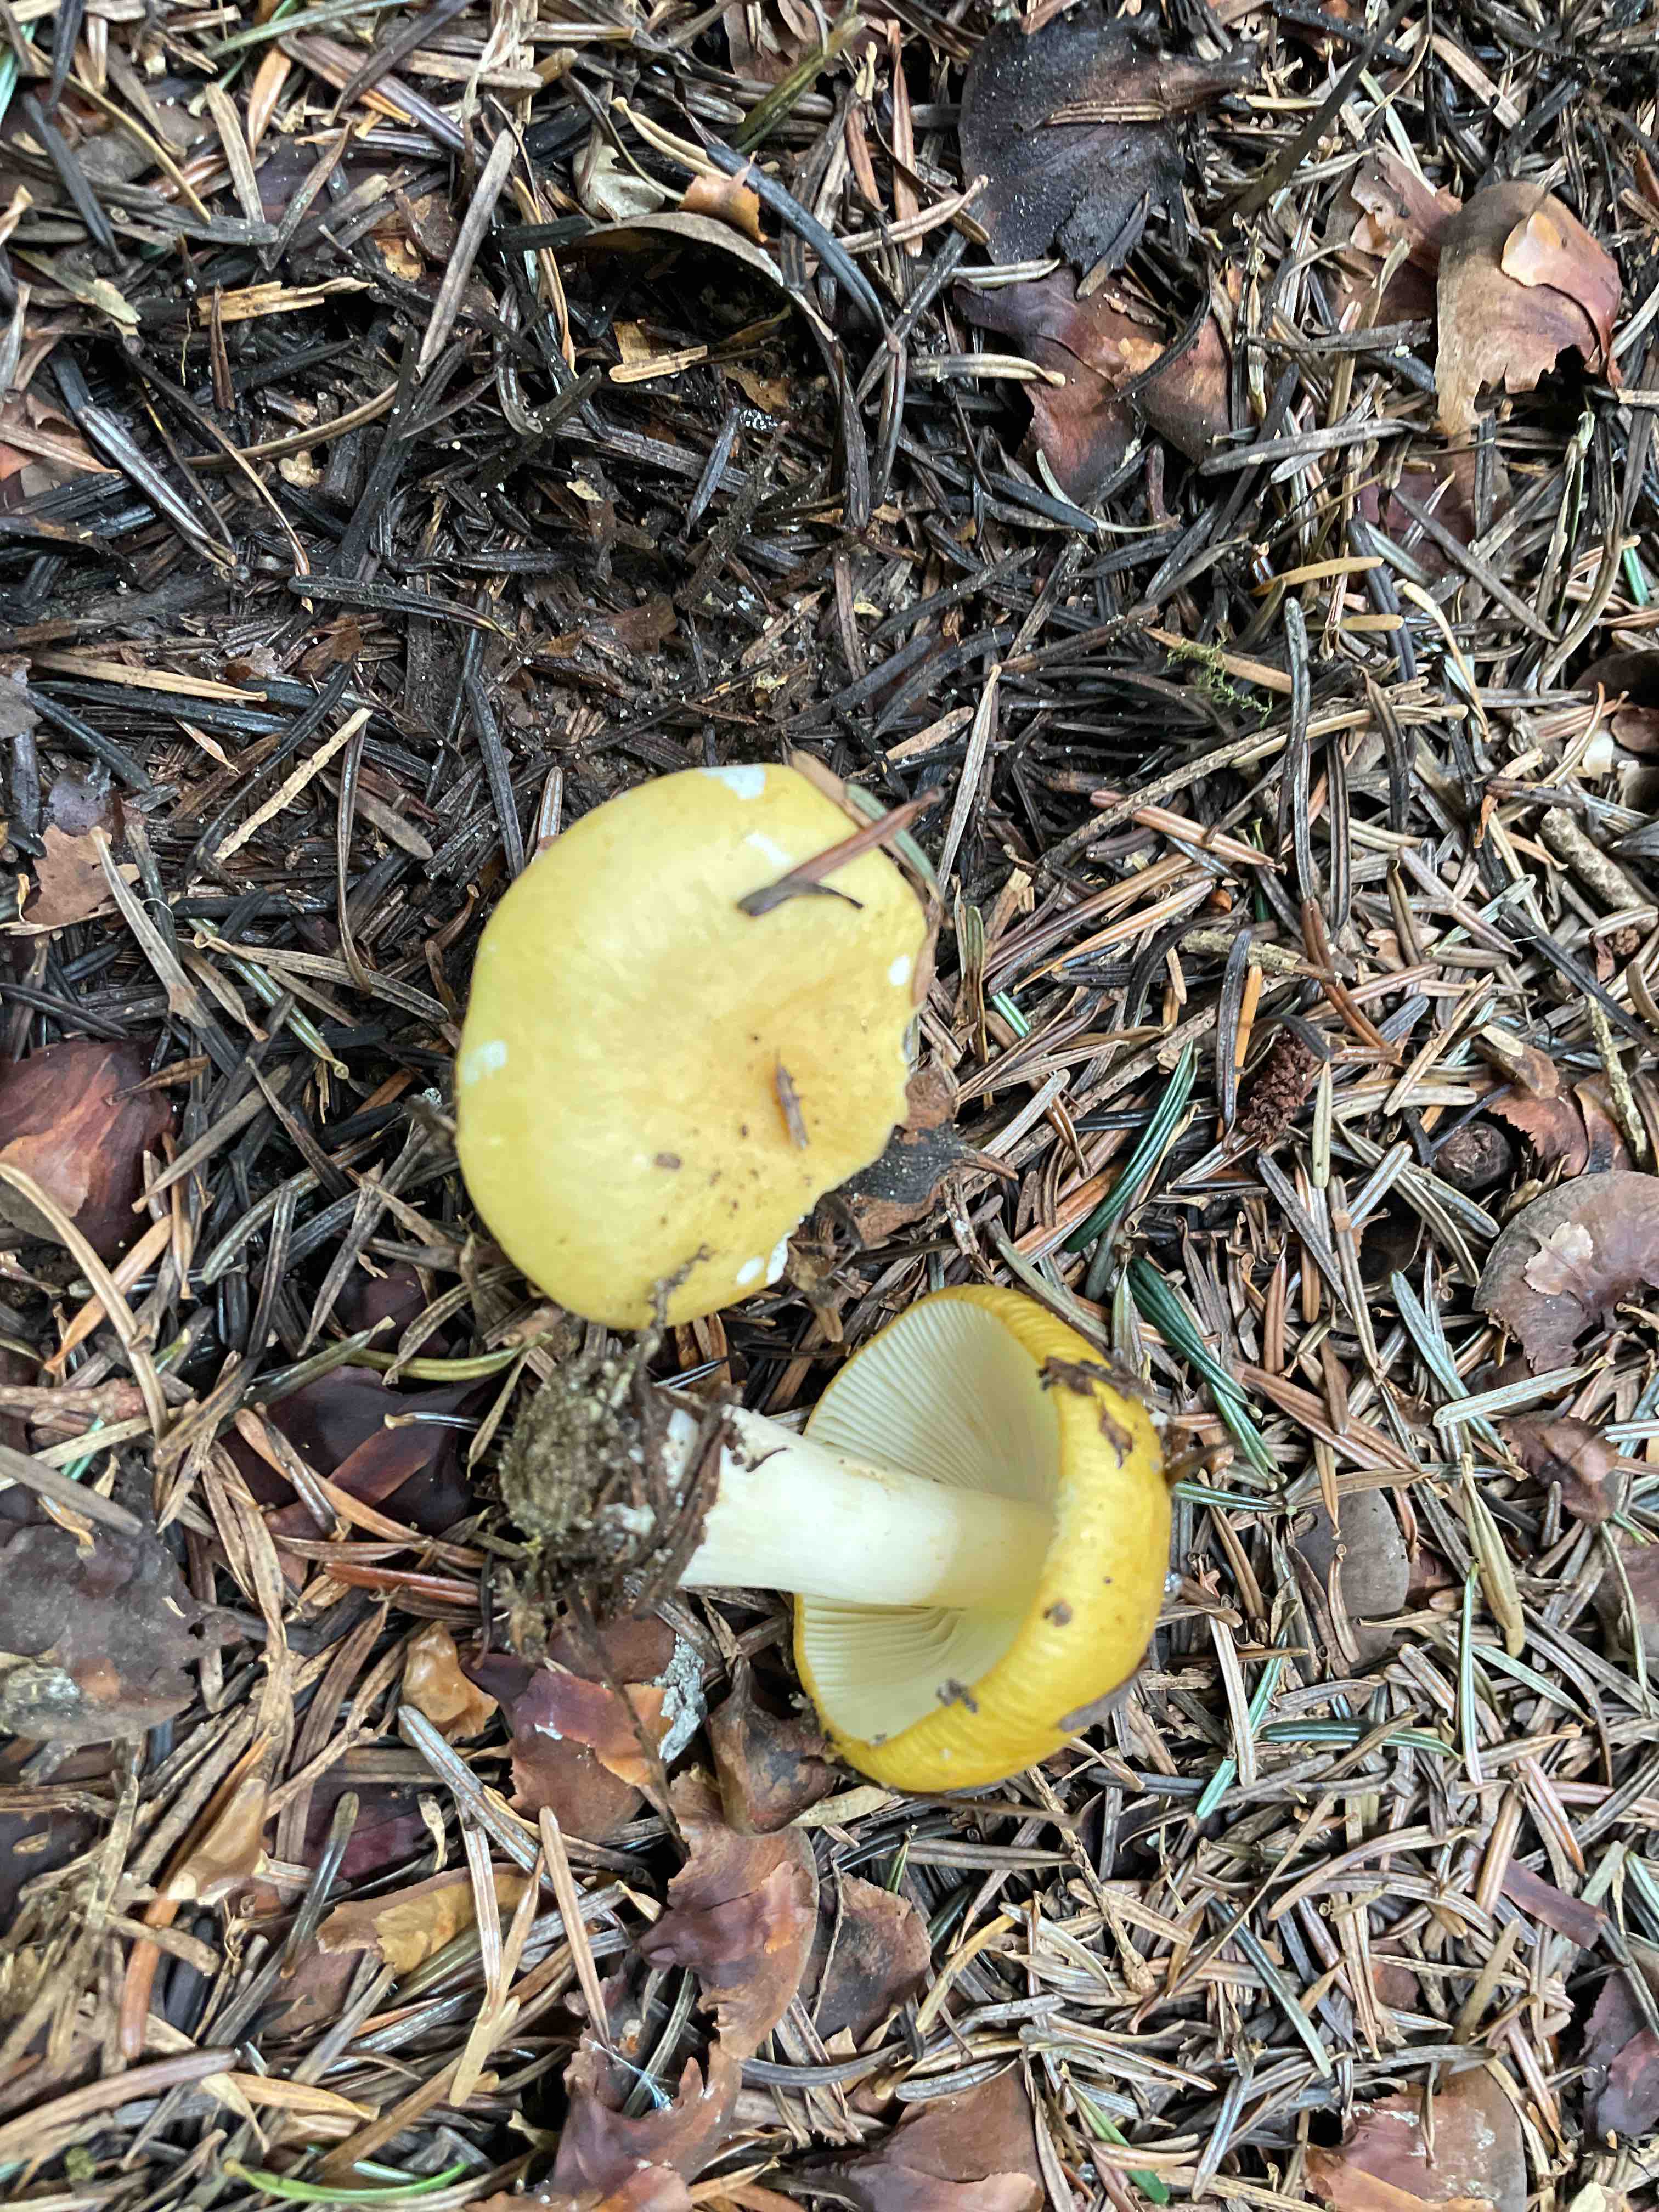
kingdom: Fungi
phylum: Basidiomycota
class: Agaricomycetes
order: Russulales
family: Russulaceae
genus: Russula
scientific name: Russula ochroleuca
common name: okkergul skørhat
